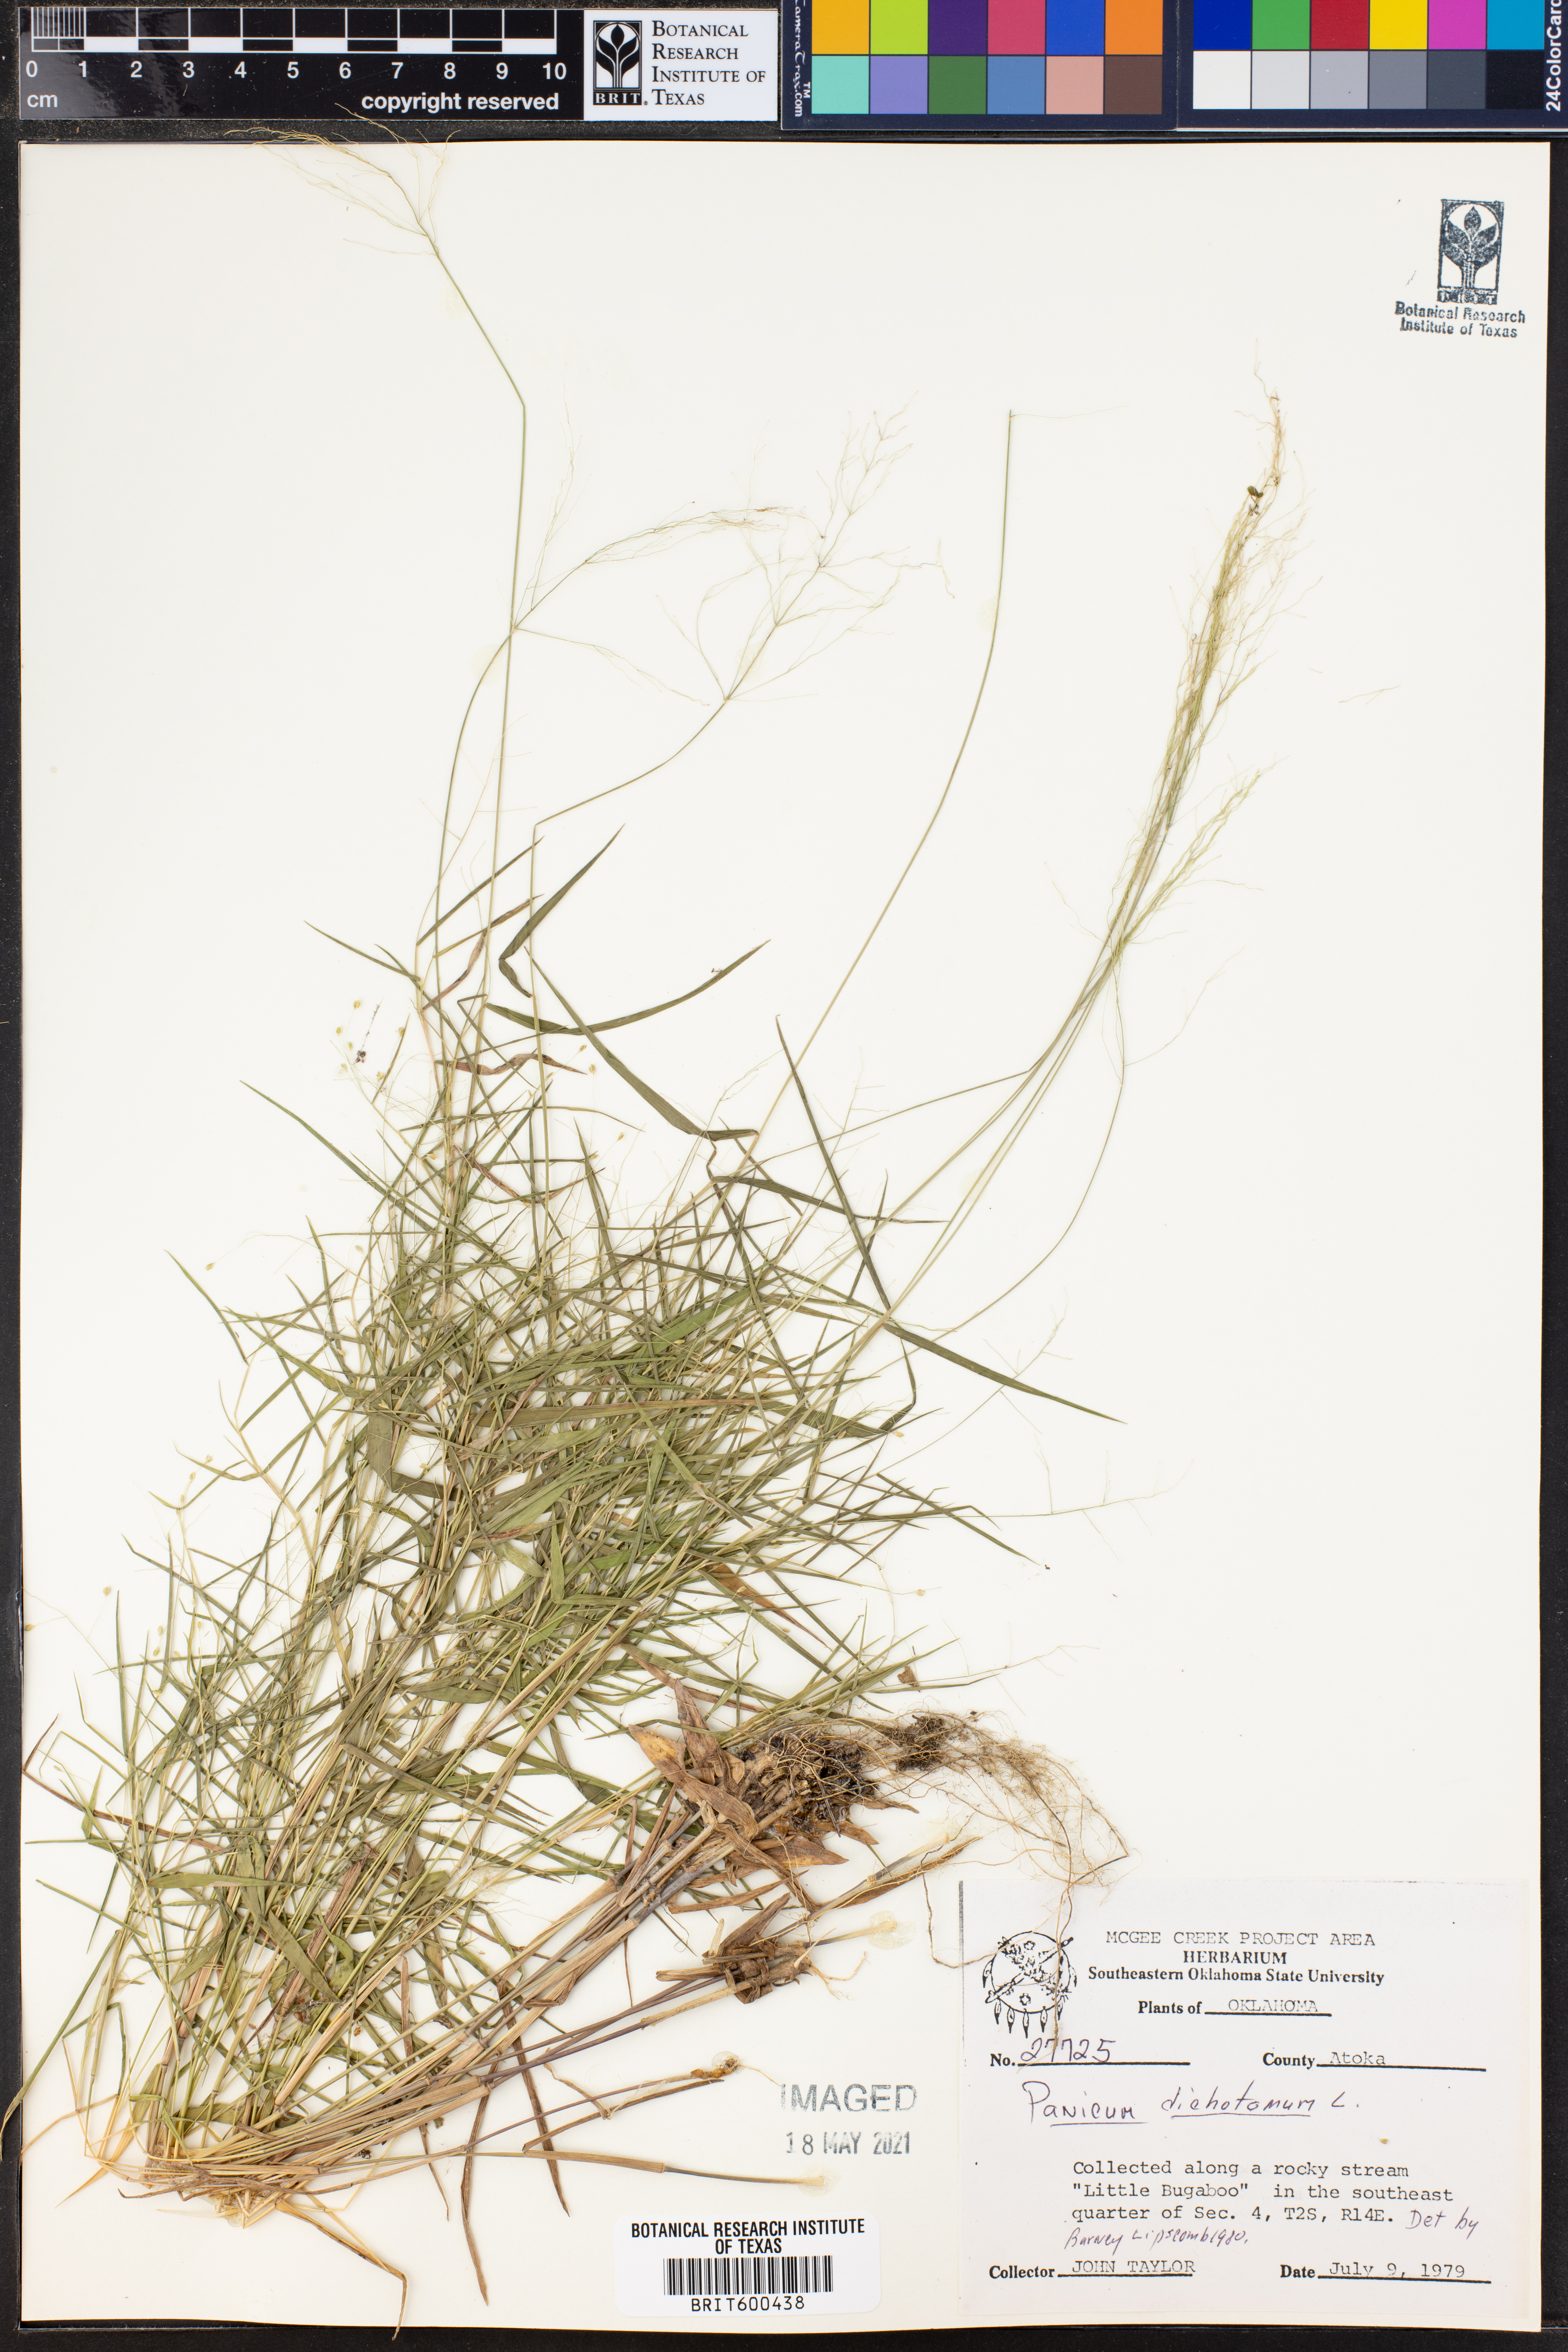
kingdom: Plantae
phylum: Tracheophyta
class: Liliopsida
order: Poales
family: Poaceae
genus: Dichanthelium
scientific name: Dichanthelium dichotomum
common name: Cypress panicgrass
